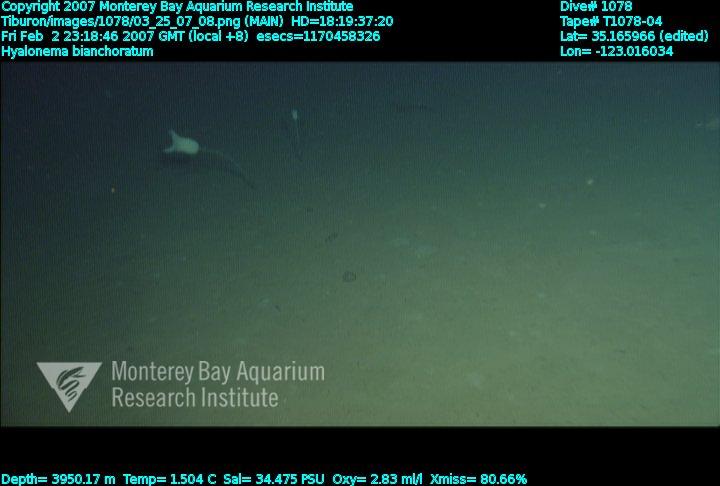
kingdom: Animalia
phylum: Porifera
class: Hexactinellida
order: Amphidiscosida
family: Hyalonematidae
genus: Hyalonema
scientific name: Hyalonema bianchoratum
